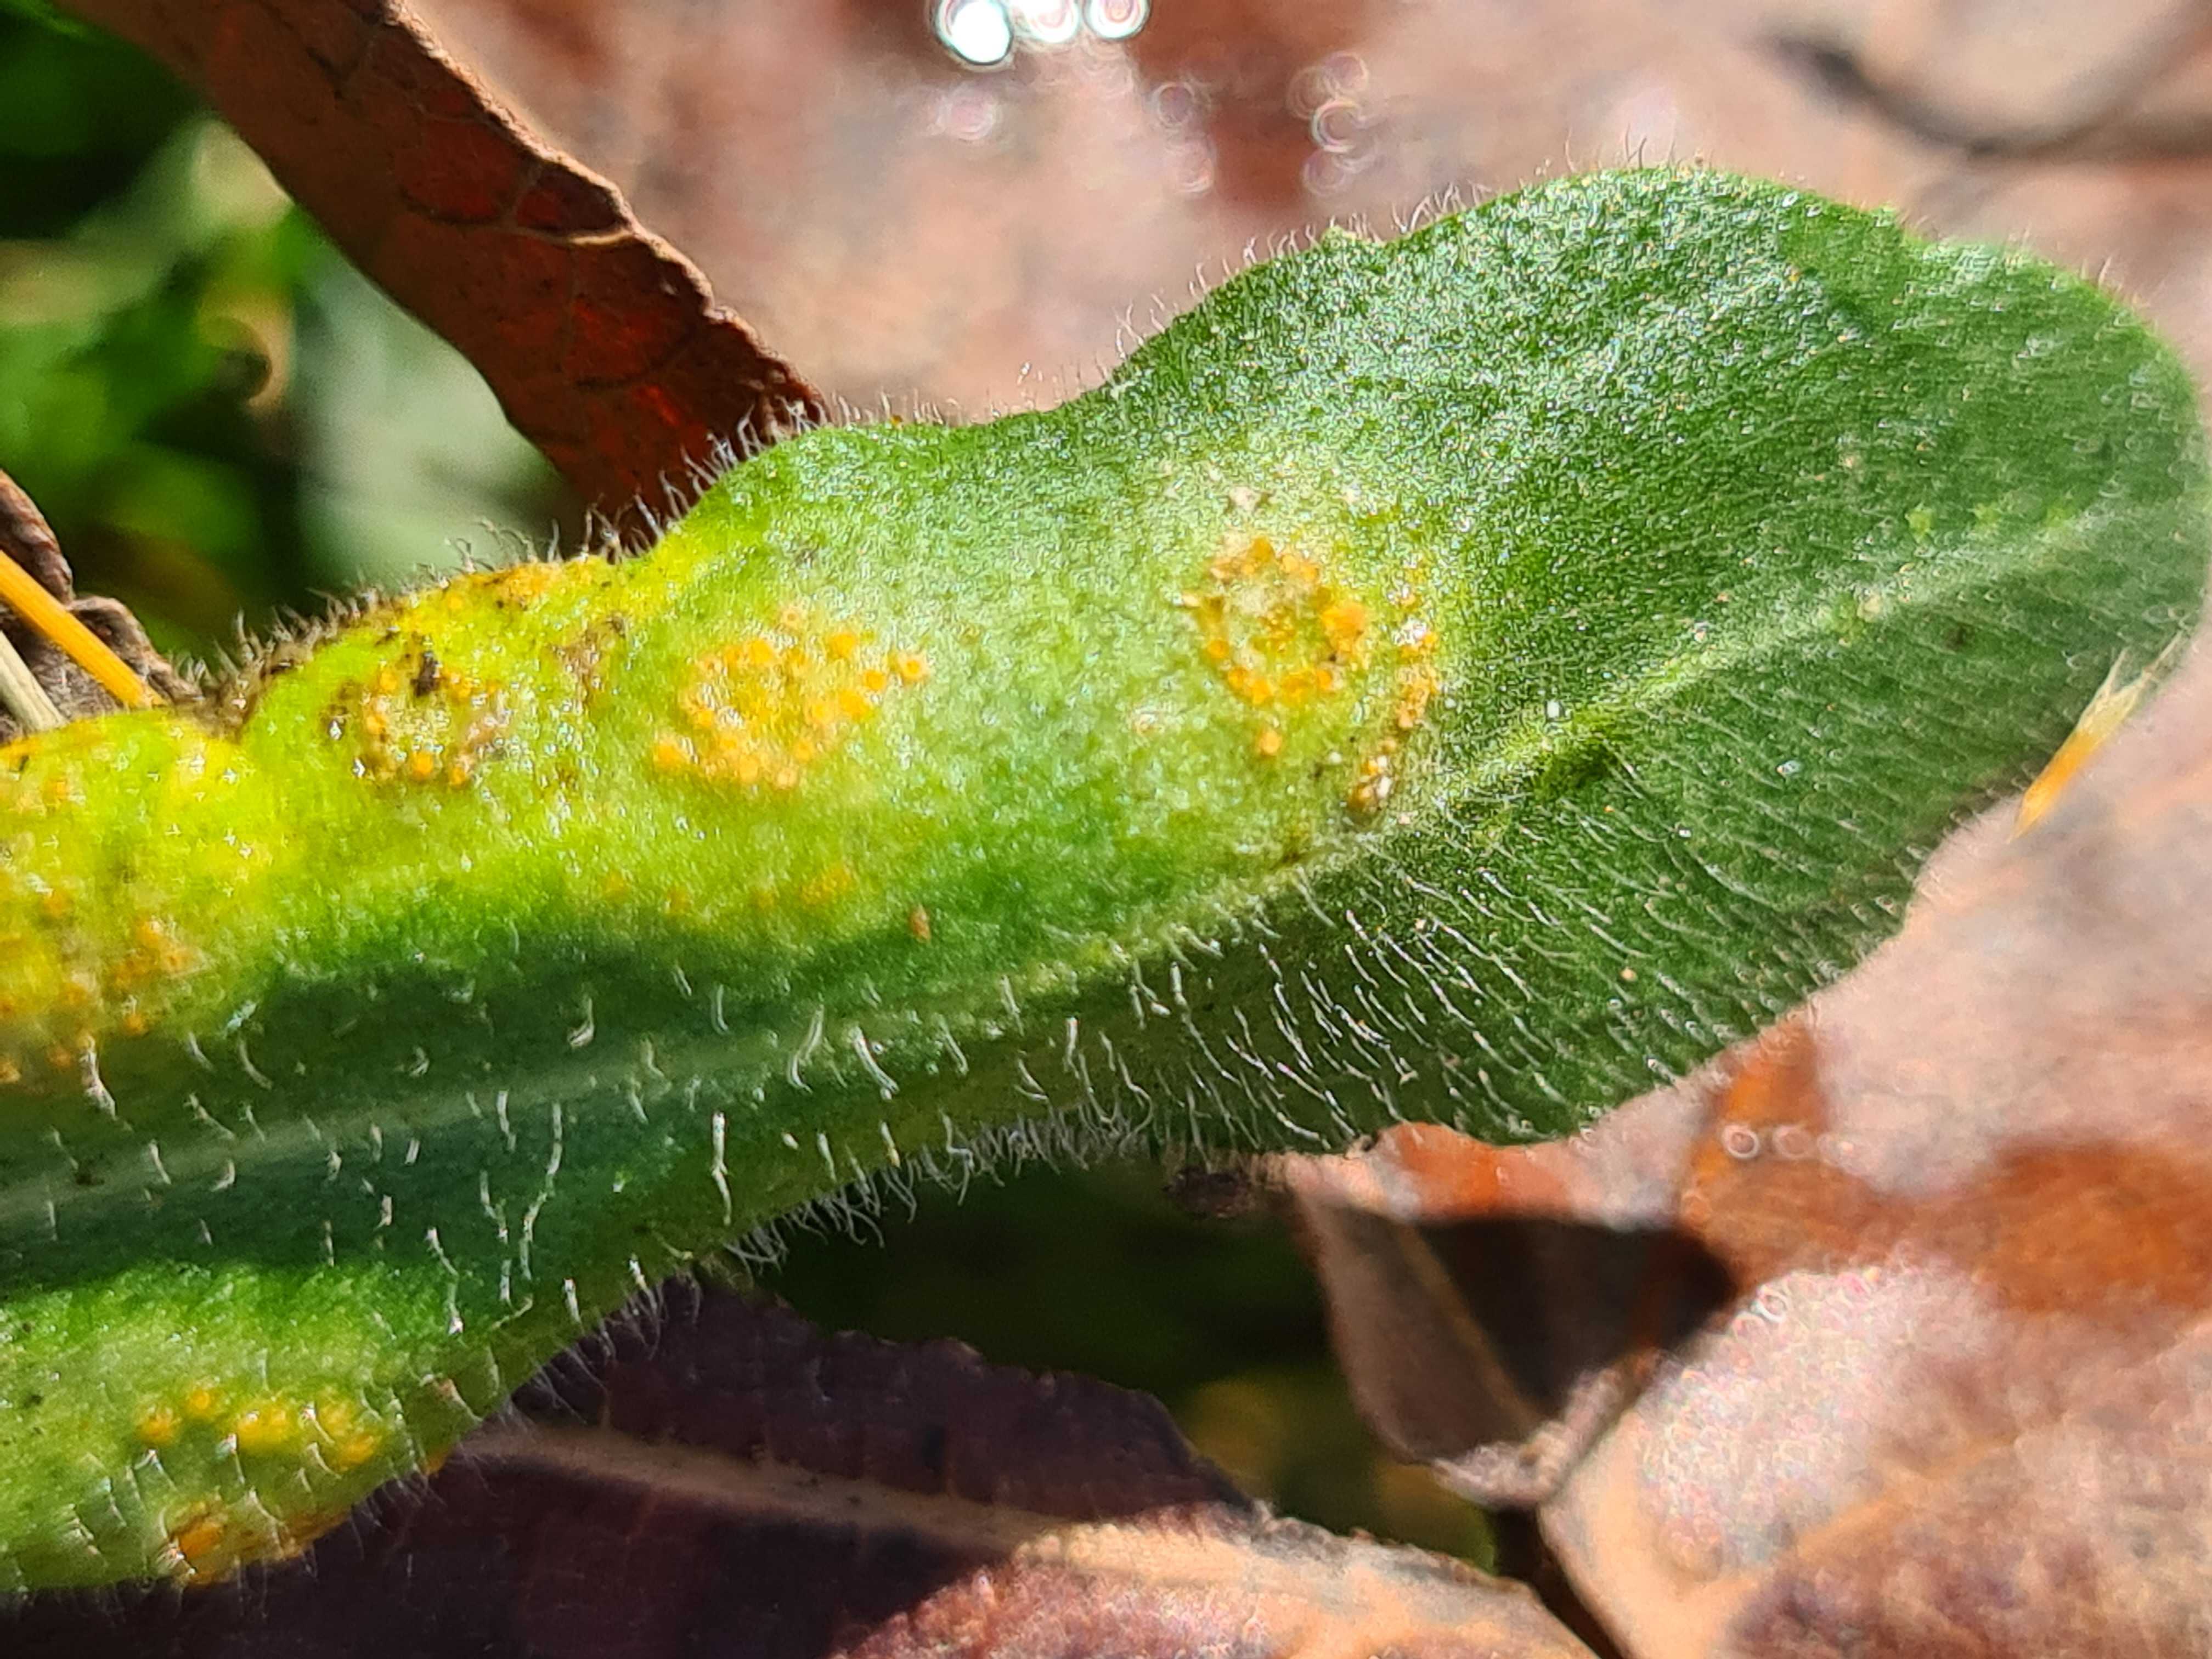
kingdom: Fungi
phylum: Basidiomycota
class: Pucciniomycetes
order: Pucciniales
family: Pucciniaceae
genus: Puccinia
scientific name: Puccinia obscura
